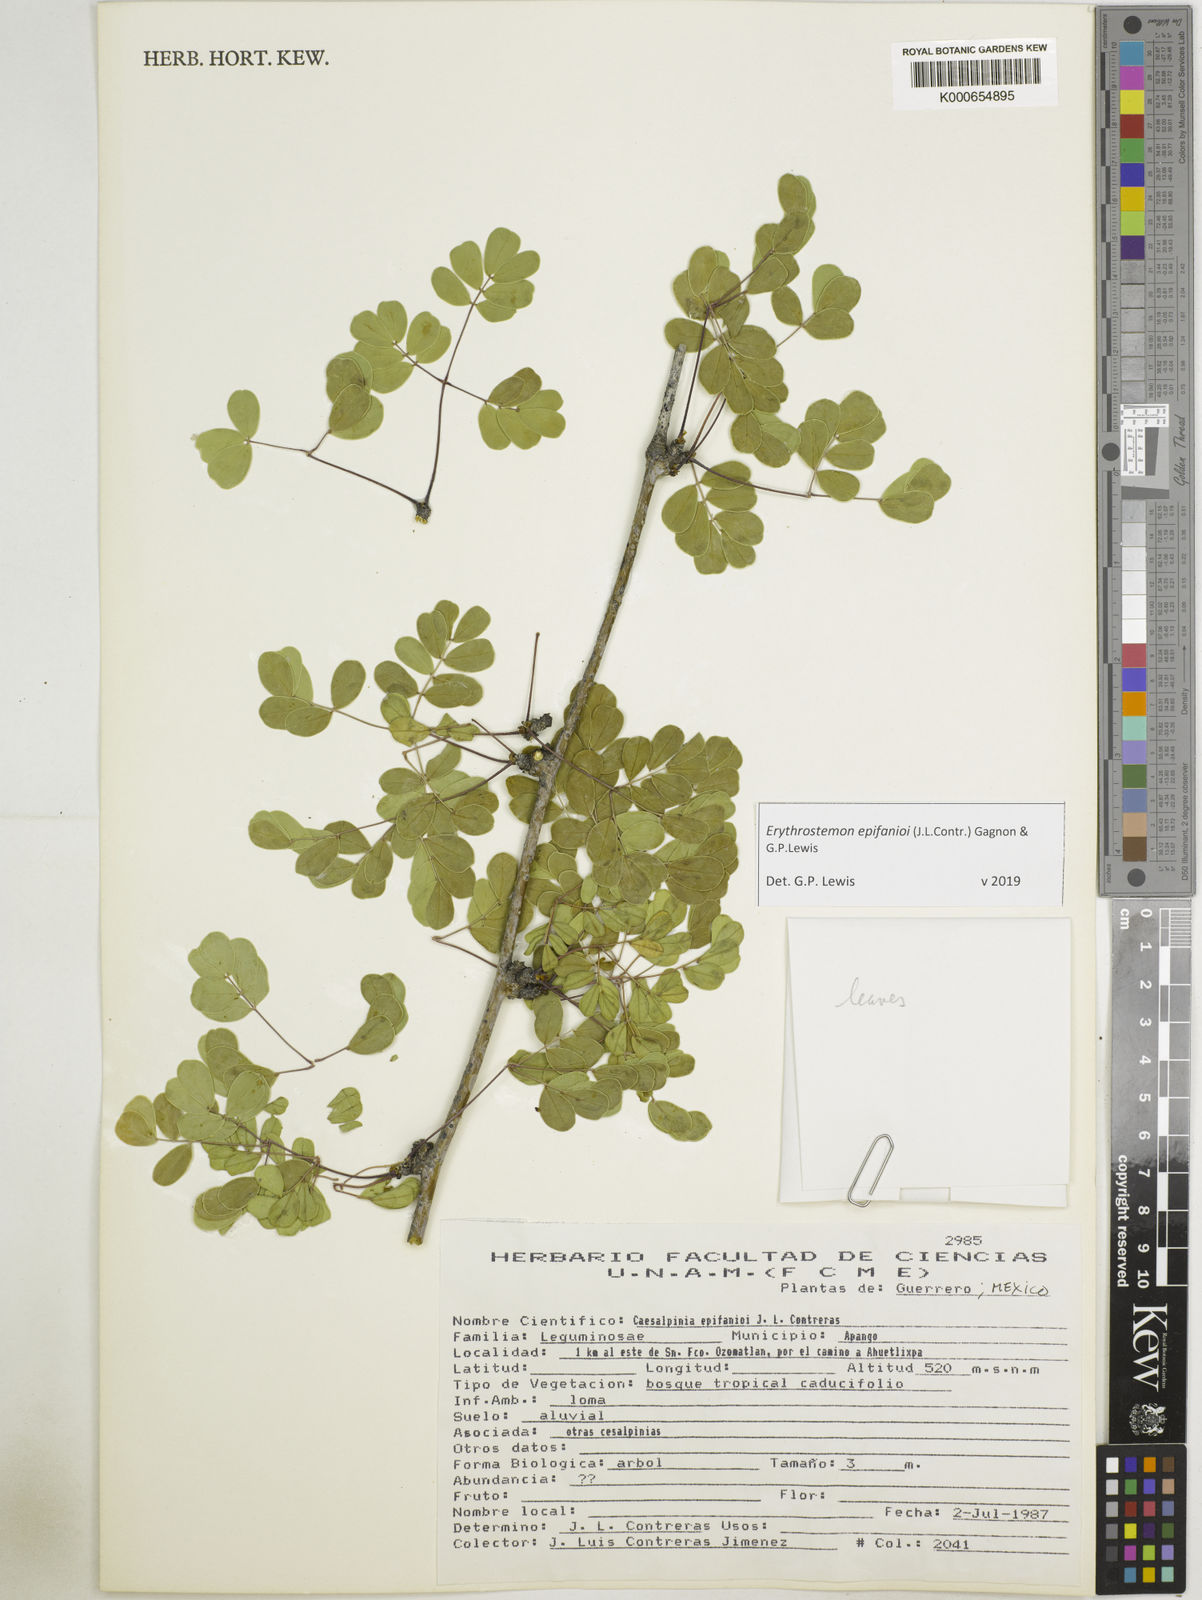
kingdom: Plantae
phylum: Tracheophyta
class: Magnoliopsida
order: Fabales
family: Fabaceae
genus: Erythrostemon
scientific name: Erythrostemon epifanioi
